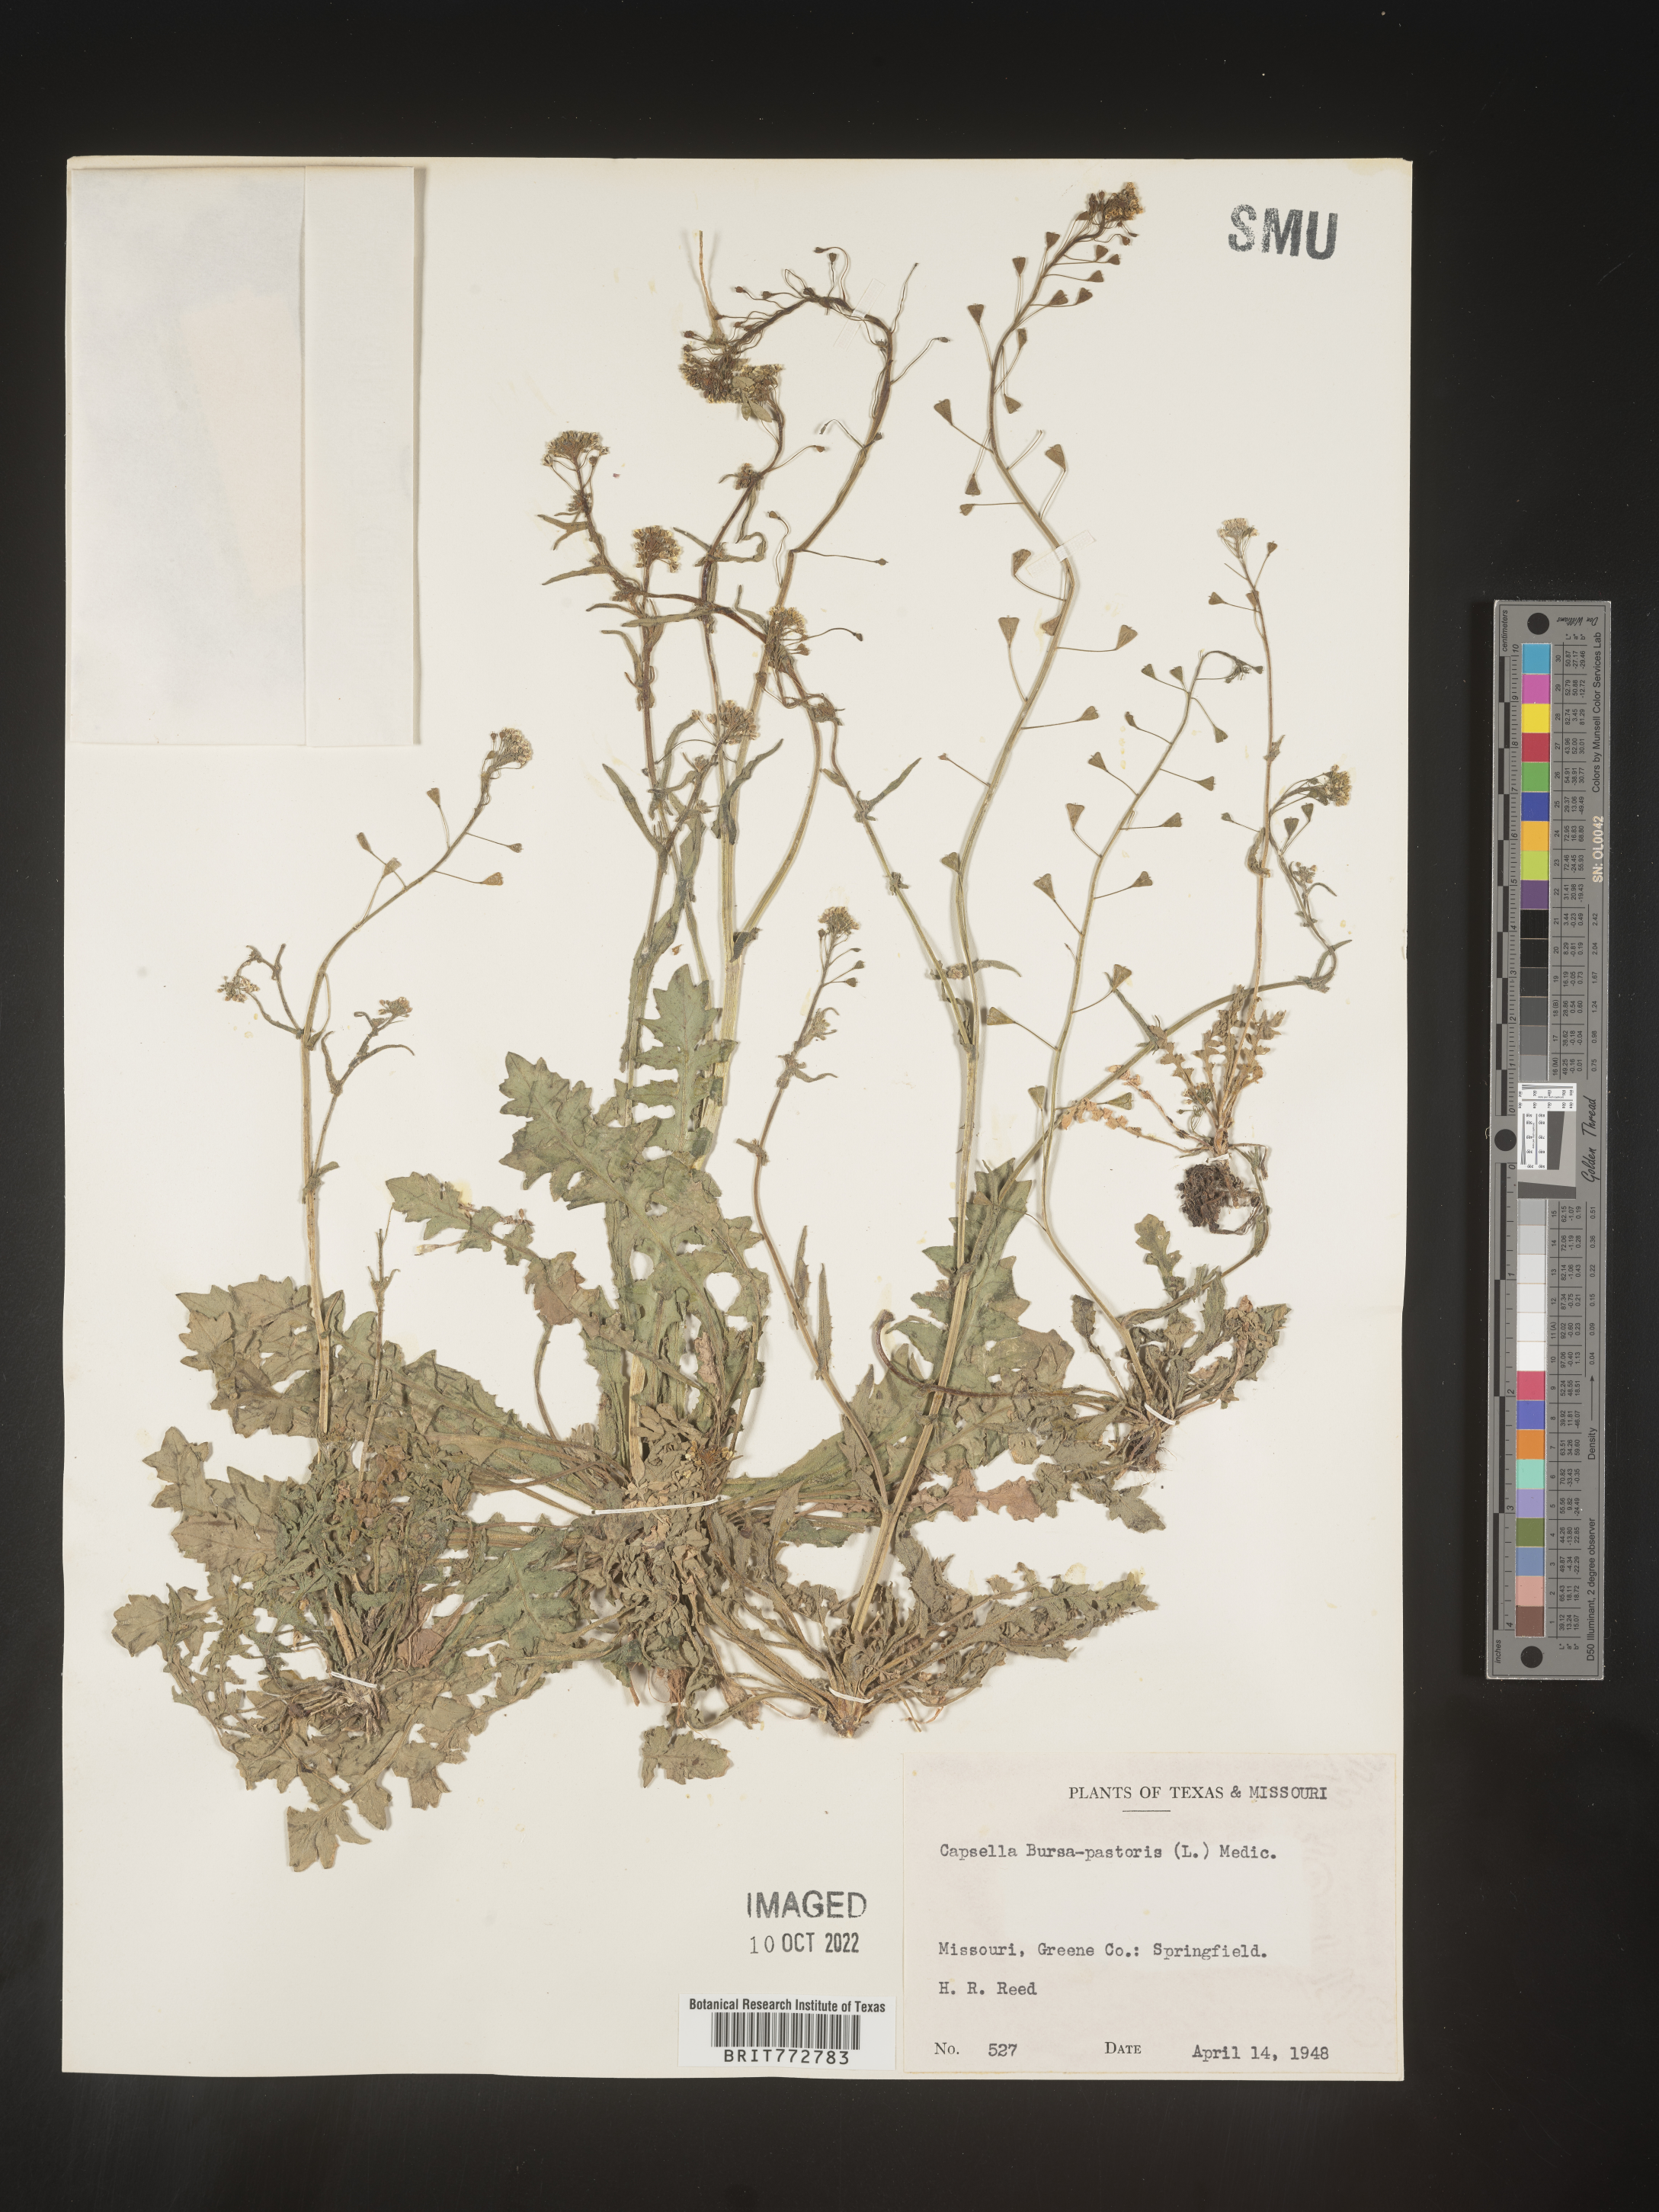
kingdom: Plantae
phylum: Tracheophyta
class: Magnoliopsida
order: Brassicales
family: Brassicaceae
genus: Capsella
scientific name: Capsella bursa-pastoris
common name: Shepherd's purse
